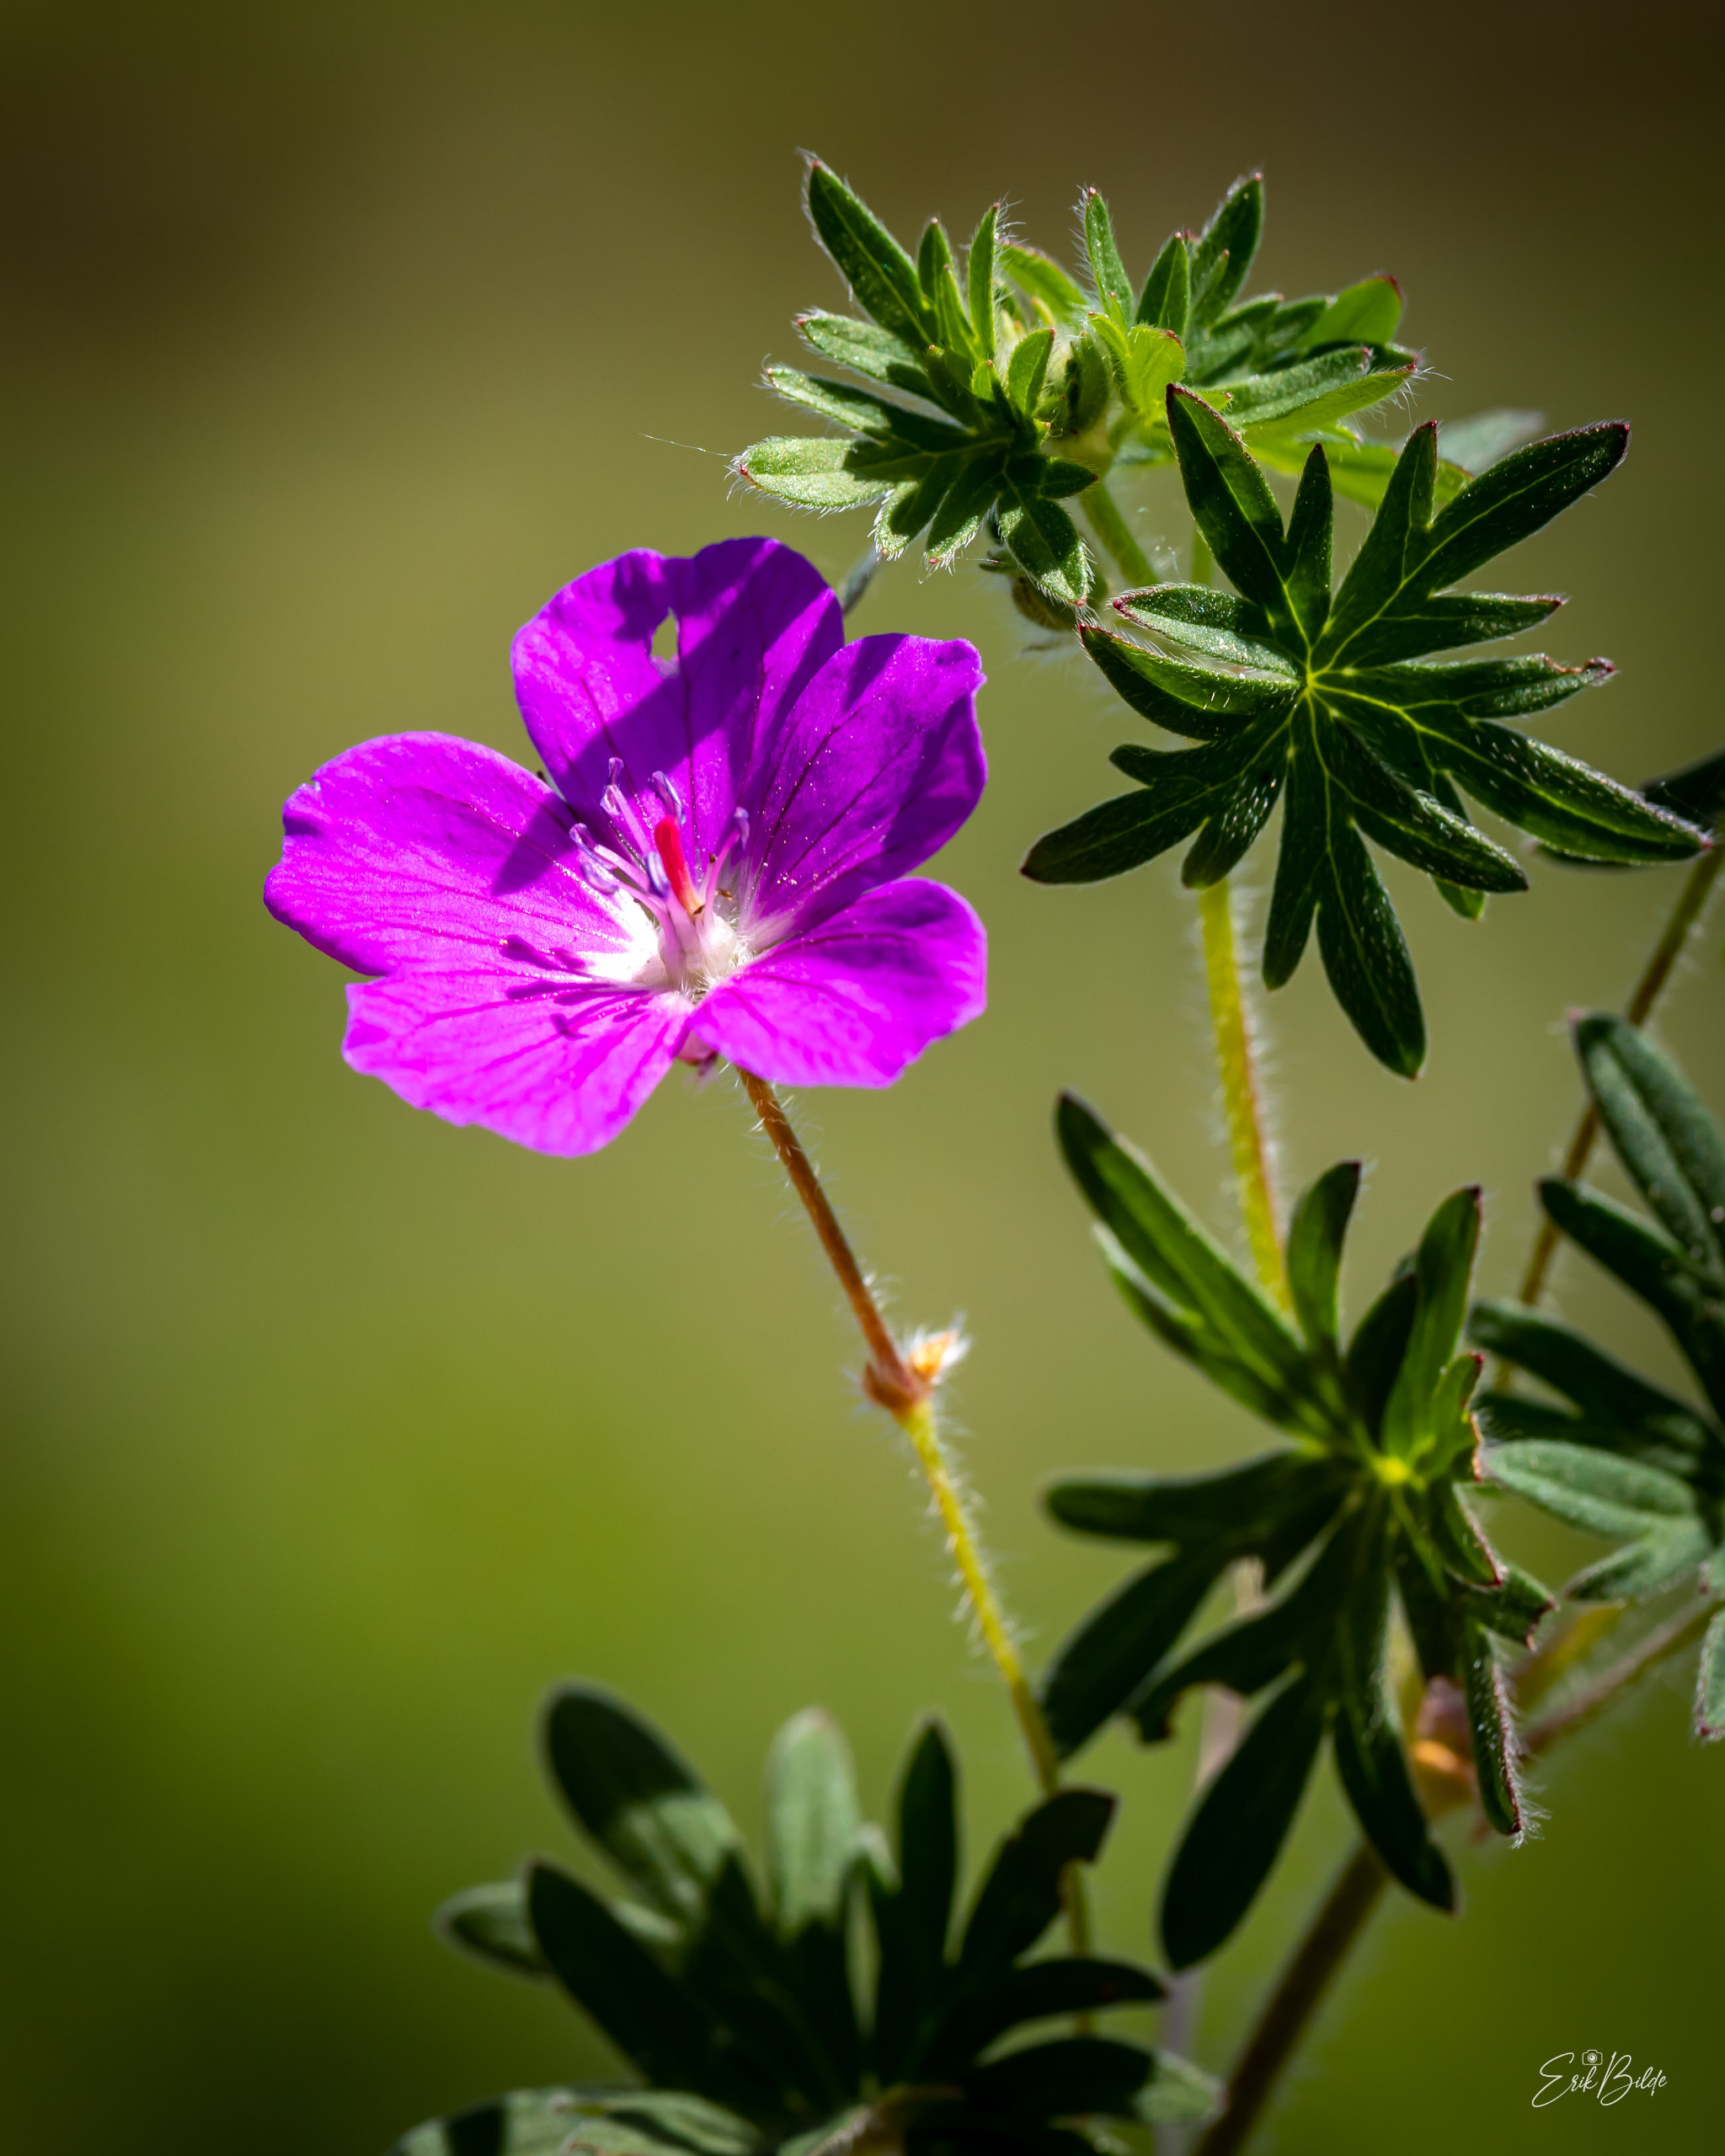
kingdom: Plantae
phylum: Tracheophyta
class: Magnoliopsida
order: Geraniales
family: Geraniaceae
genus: Geranium
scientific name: Geranium sanguineum
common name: Blodrød storkenæb
